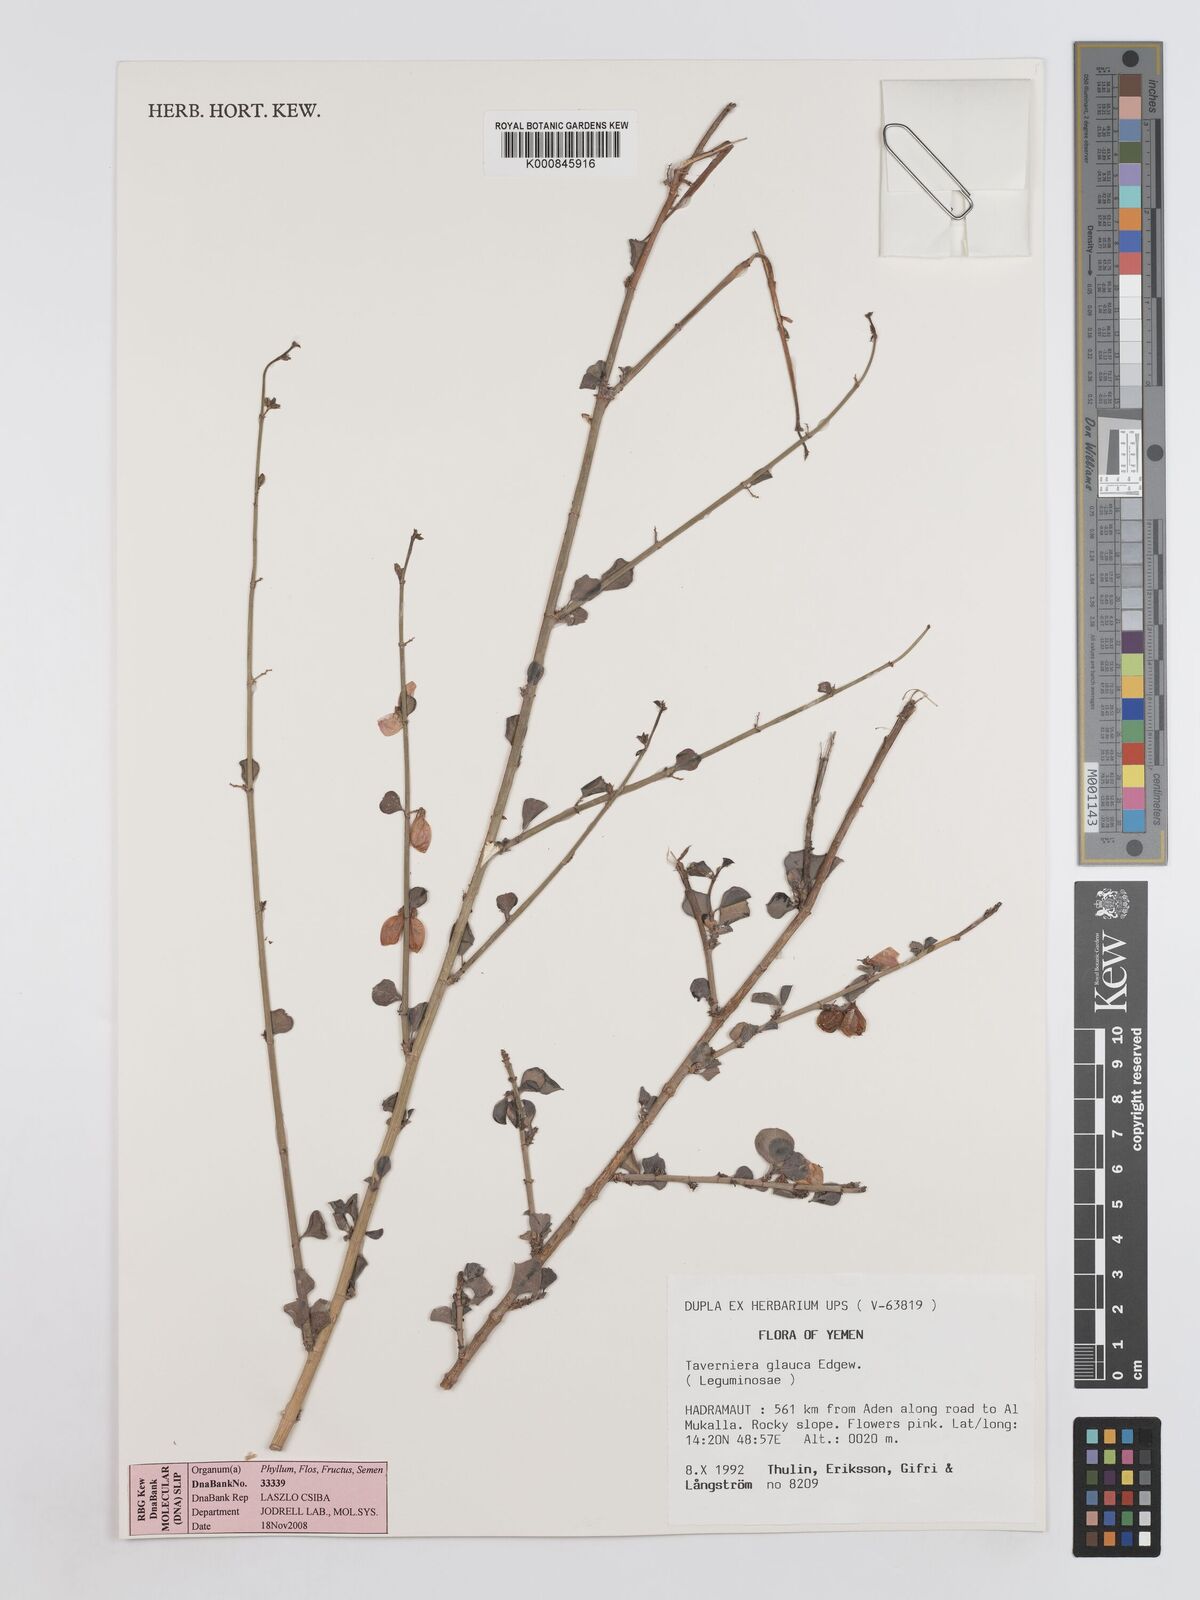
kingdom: Plantae
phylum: Tracheophyta
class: Magnoliopsida
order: Fabales
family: Fabaceae
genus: Taverniera
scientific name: Taverniera glauca
